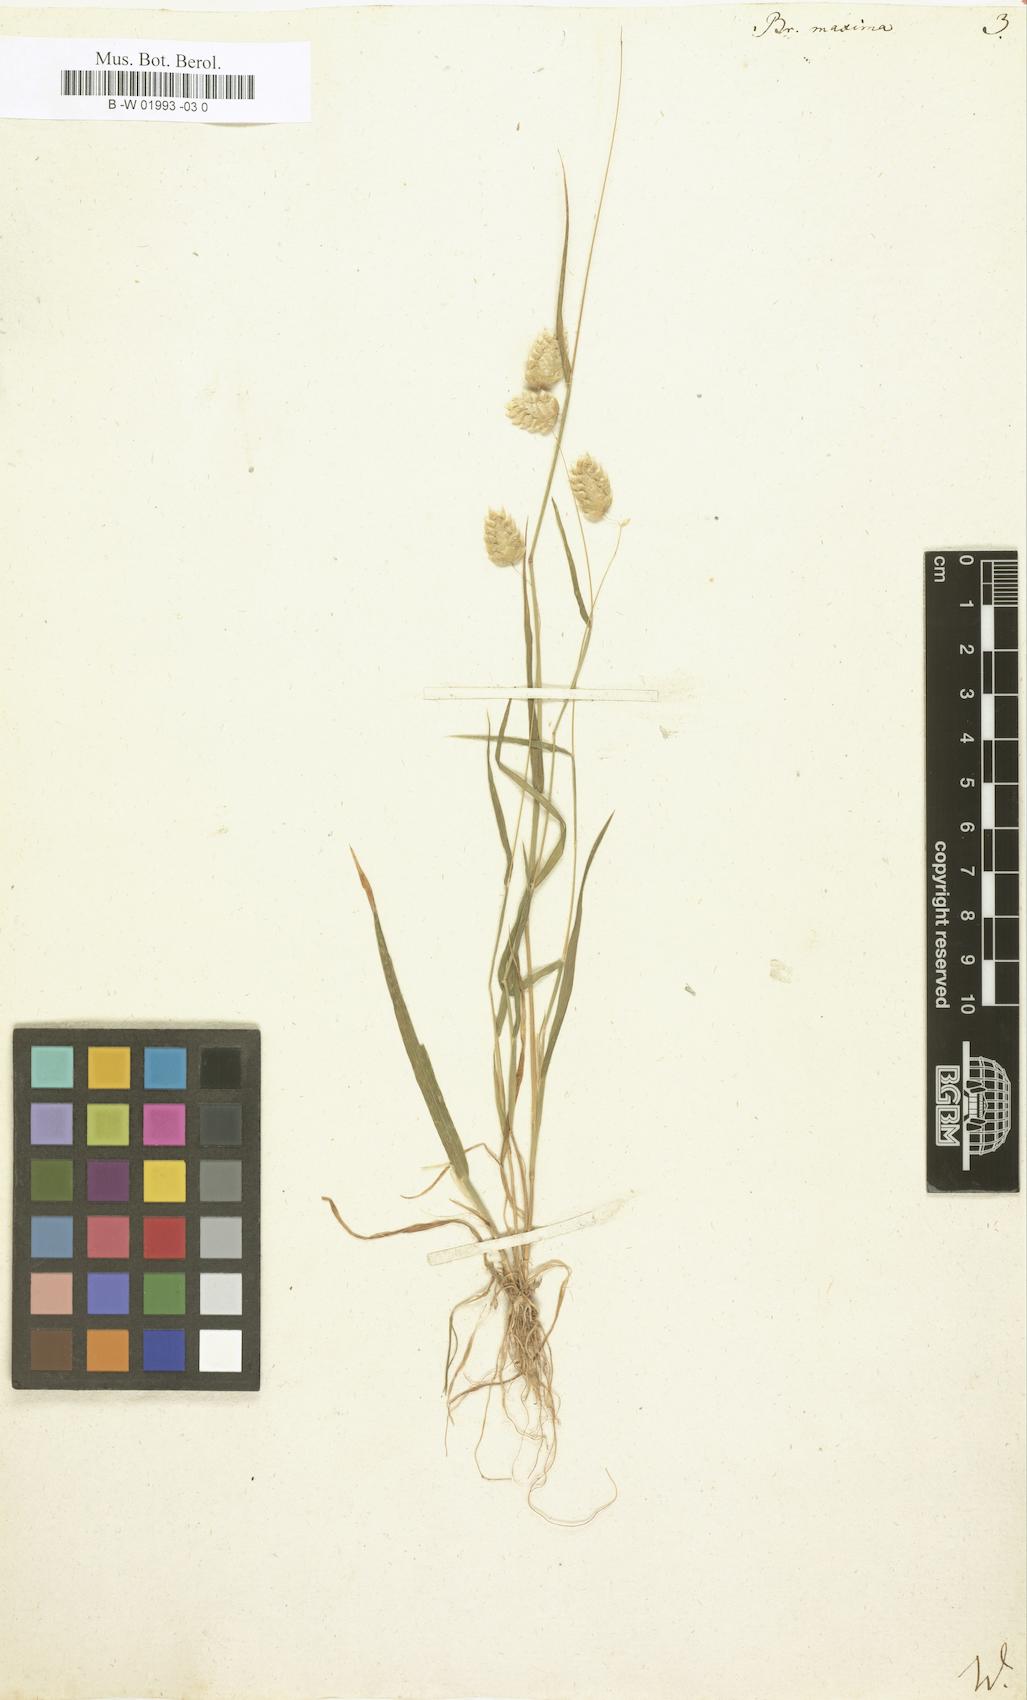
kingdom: Plantae
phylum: Tracheophyta
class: Liliopsida
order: Poales
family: Poaceae
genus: Briza
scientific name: Briza maxima
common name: Big quakinggrass
